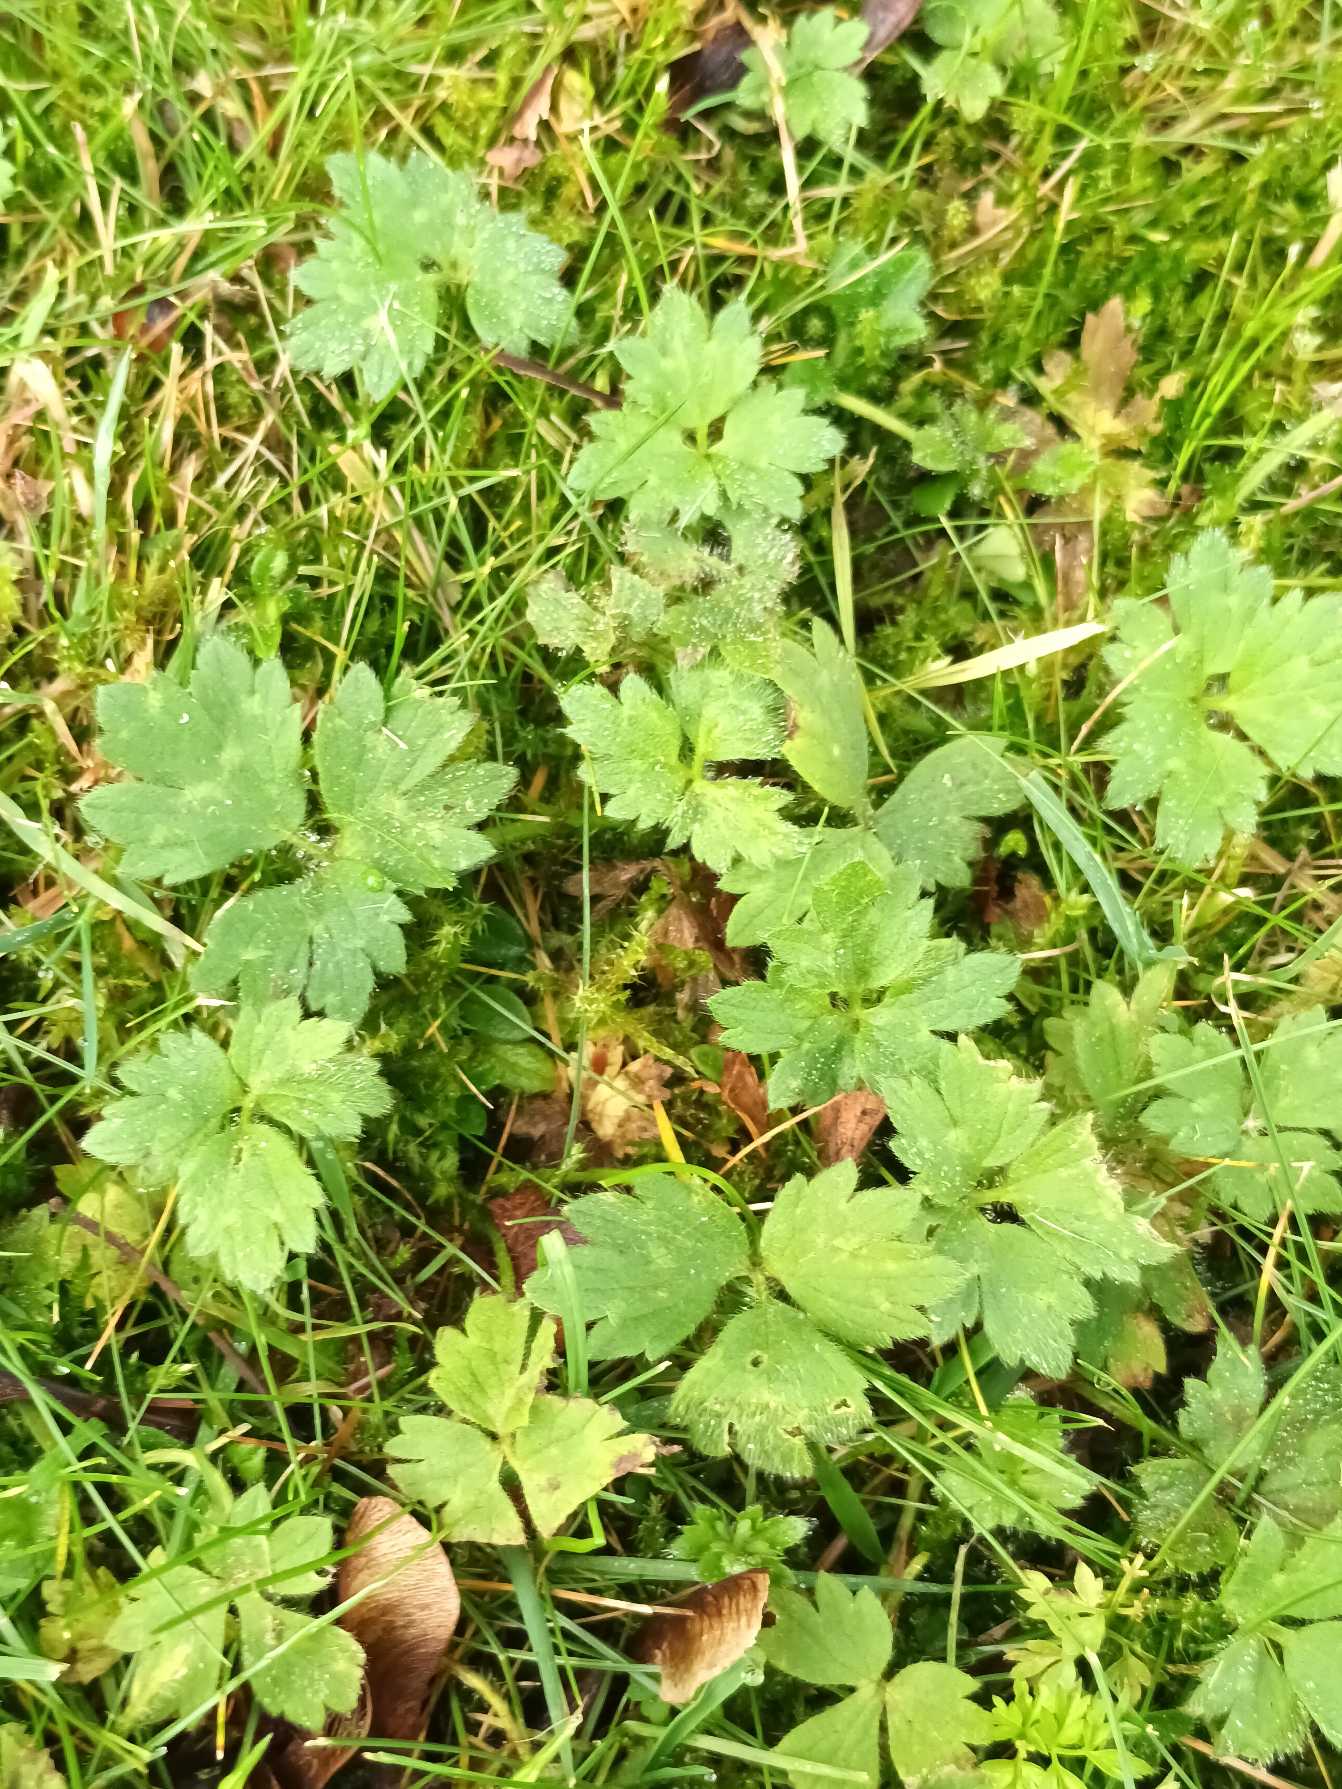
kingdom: Plantae
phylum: Tracheophyta
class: Magnoliopsida
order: Ranunculales
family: Ranunculaceae
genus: Ranunculus
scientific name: Ranunculus repens
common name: Lav ranunkel
